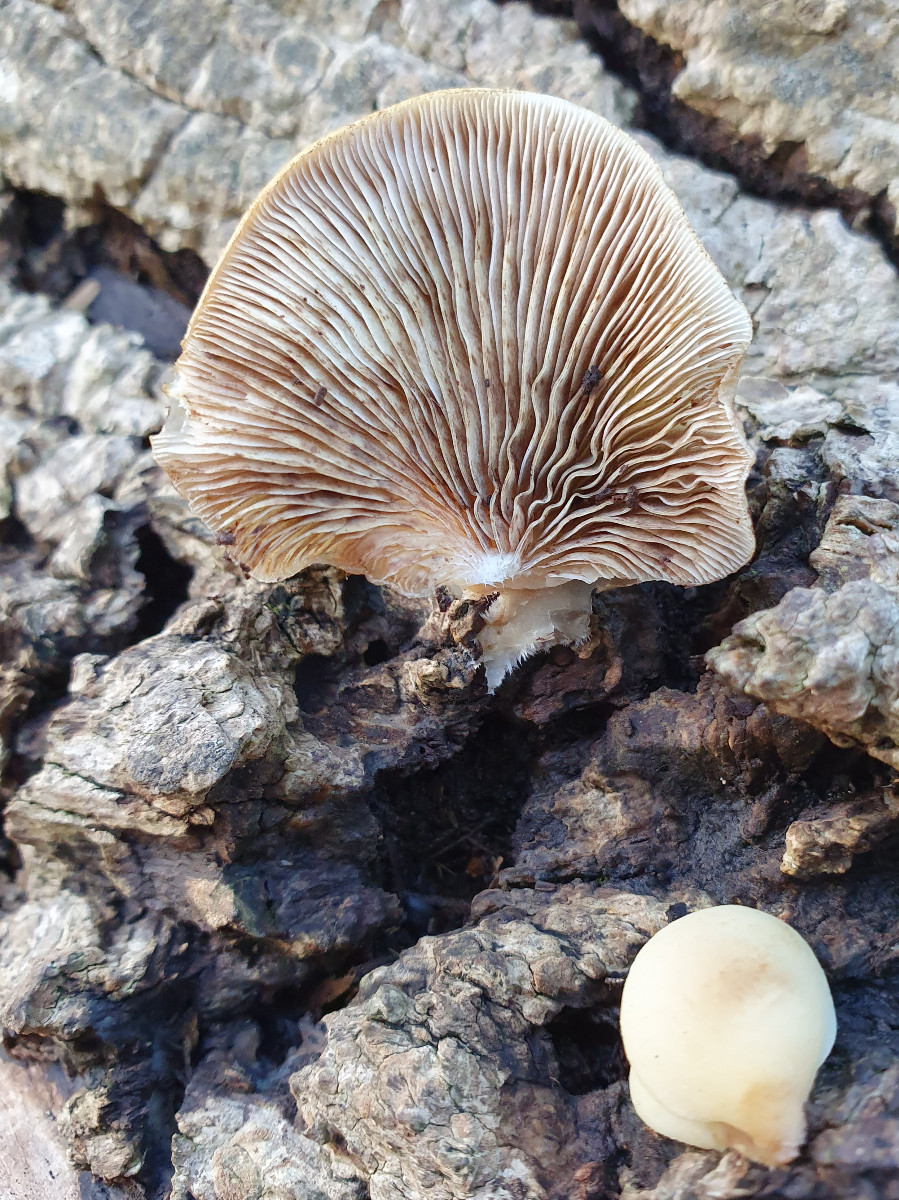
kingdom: Fungi
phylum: Basidiomycota
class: Agaricomycetes
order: Agaricales
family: Crepidotaceae
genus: Crepidotus
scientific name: Crepidotus mollis
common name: blød muslingesvamp
